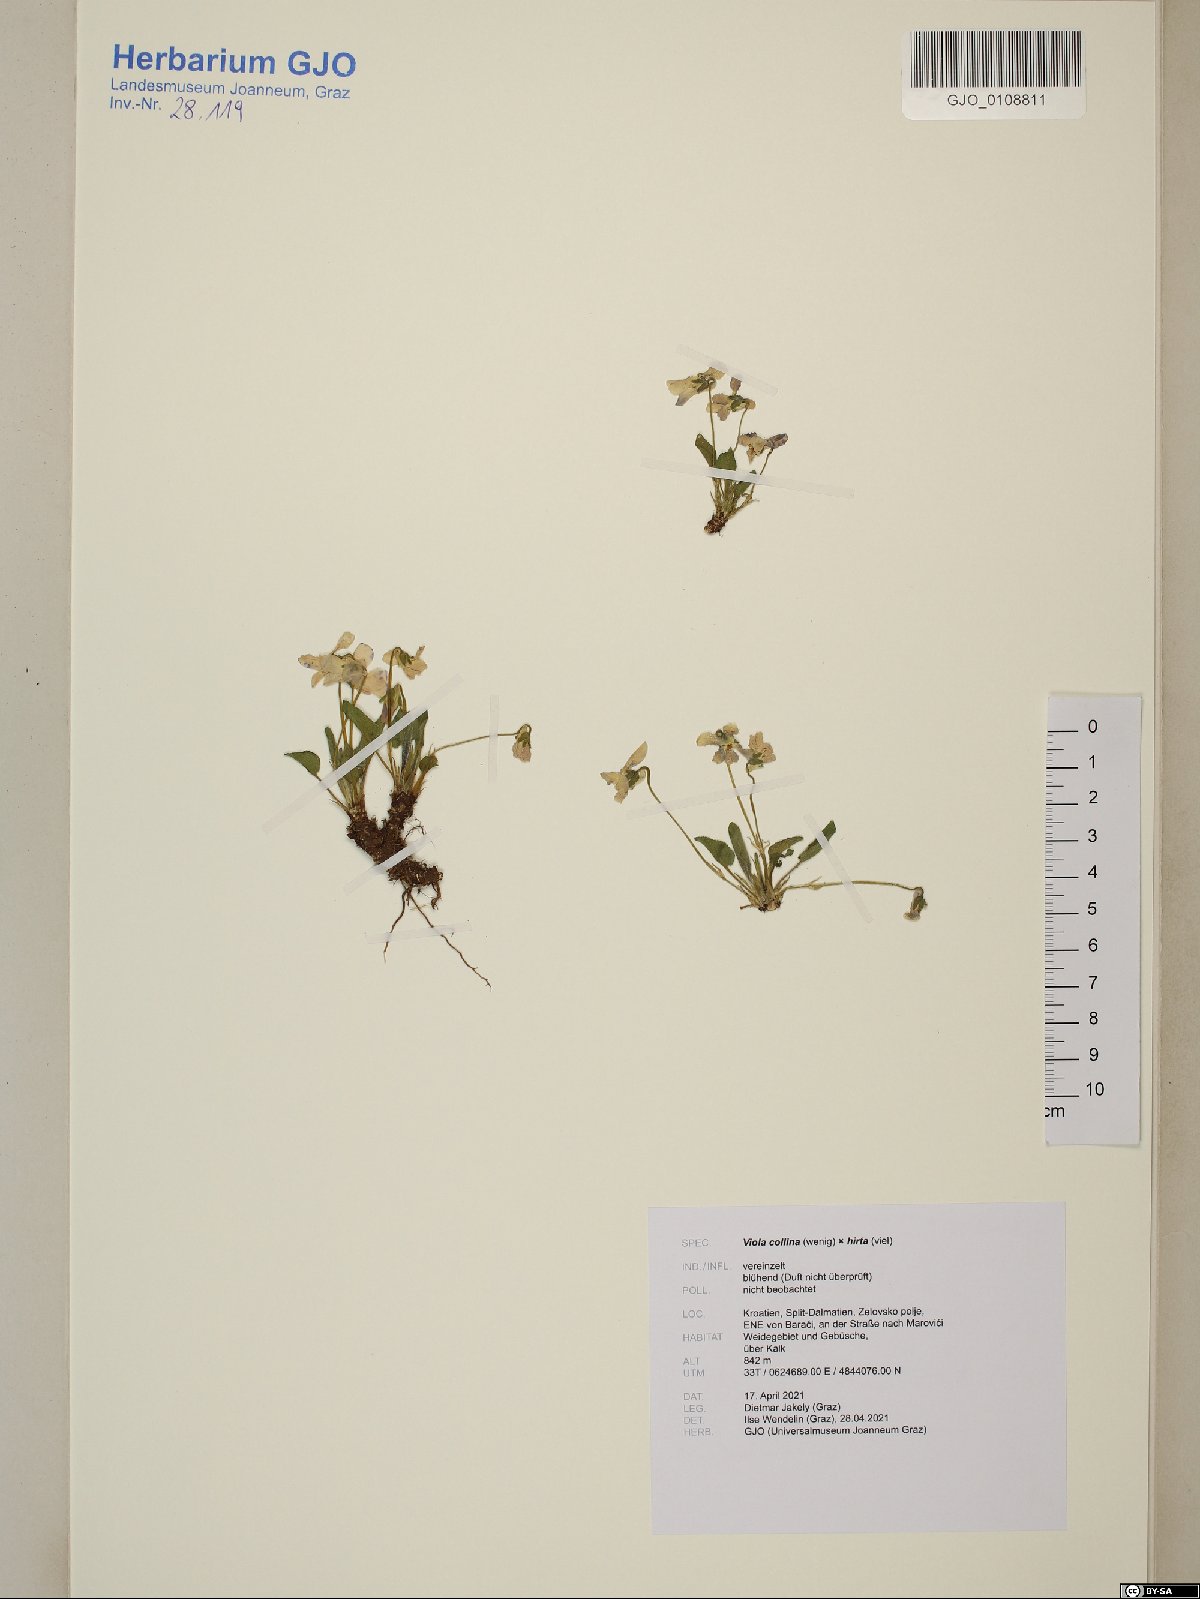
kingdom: Plantae
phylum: Tracheophyta
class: Magnoliopsida
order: Malpighiales
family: Violaceae
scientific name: Violaceae
